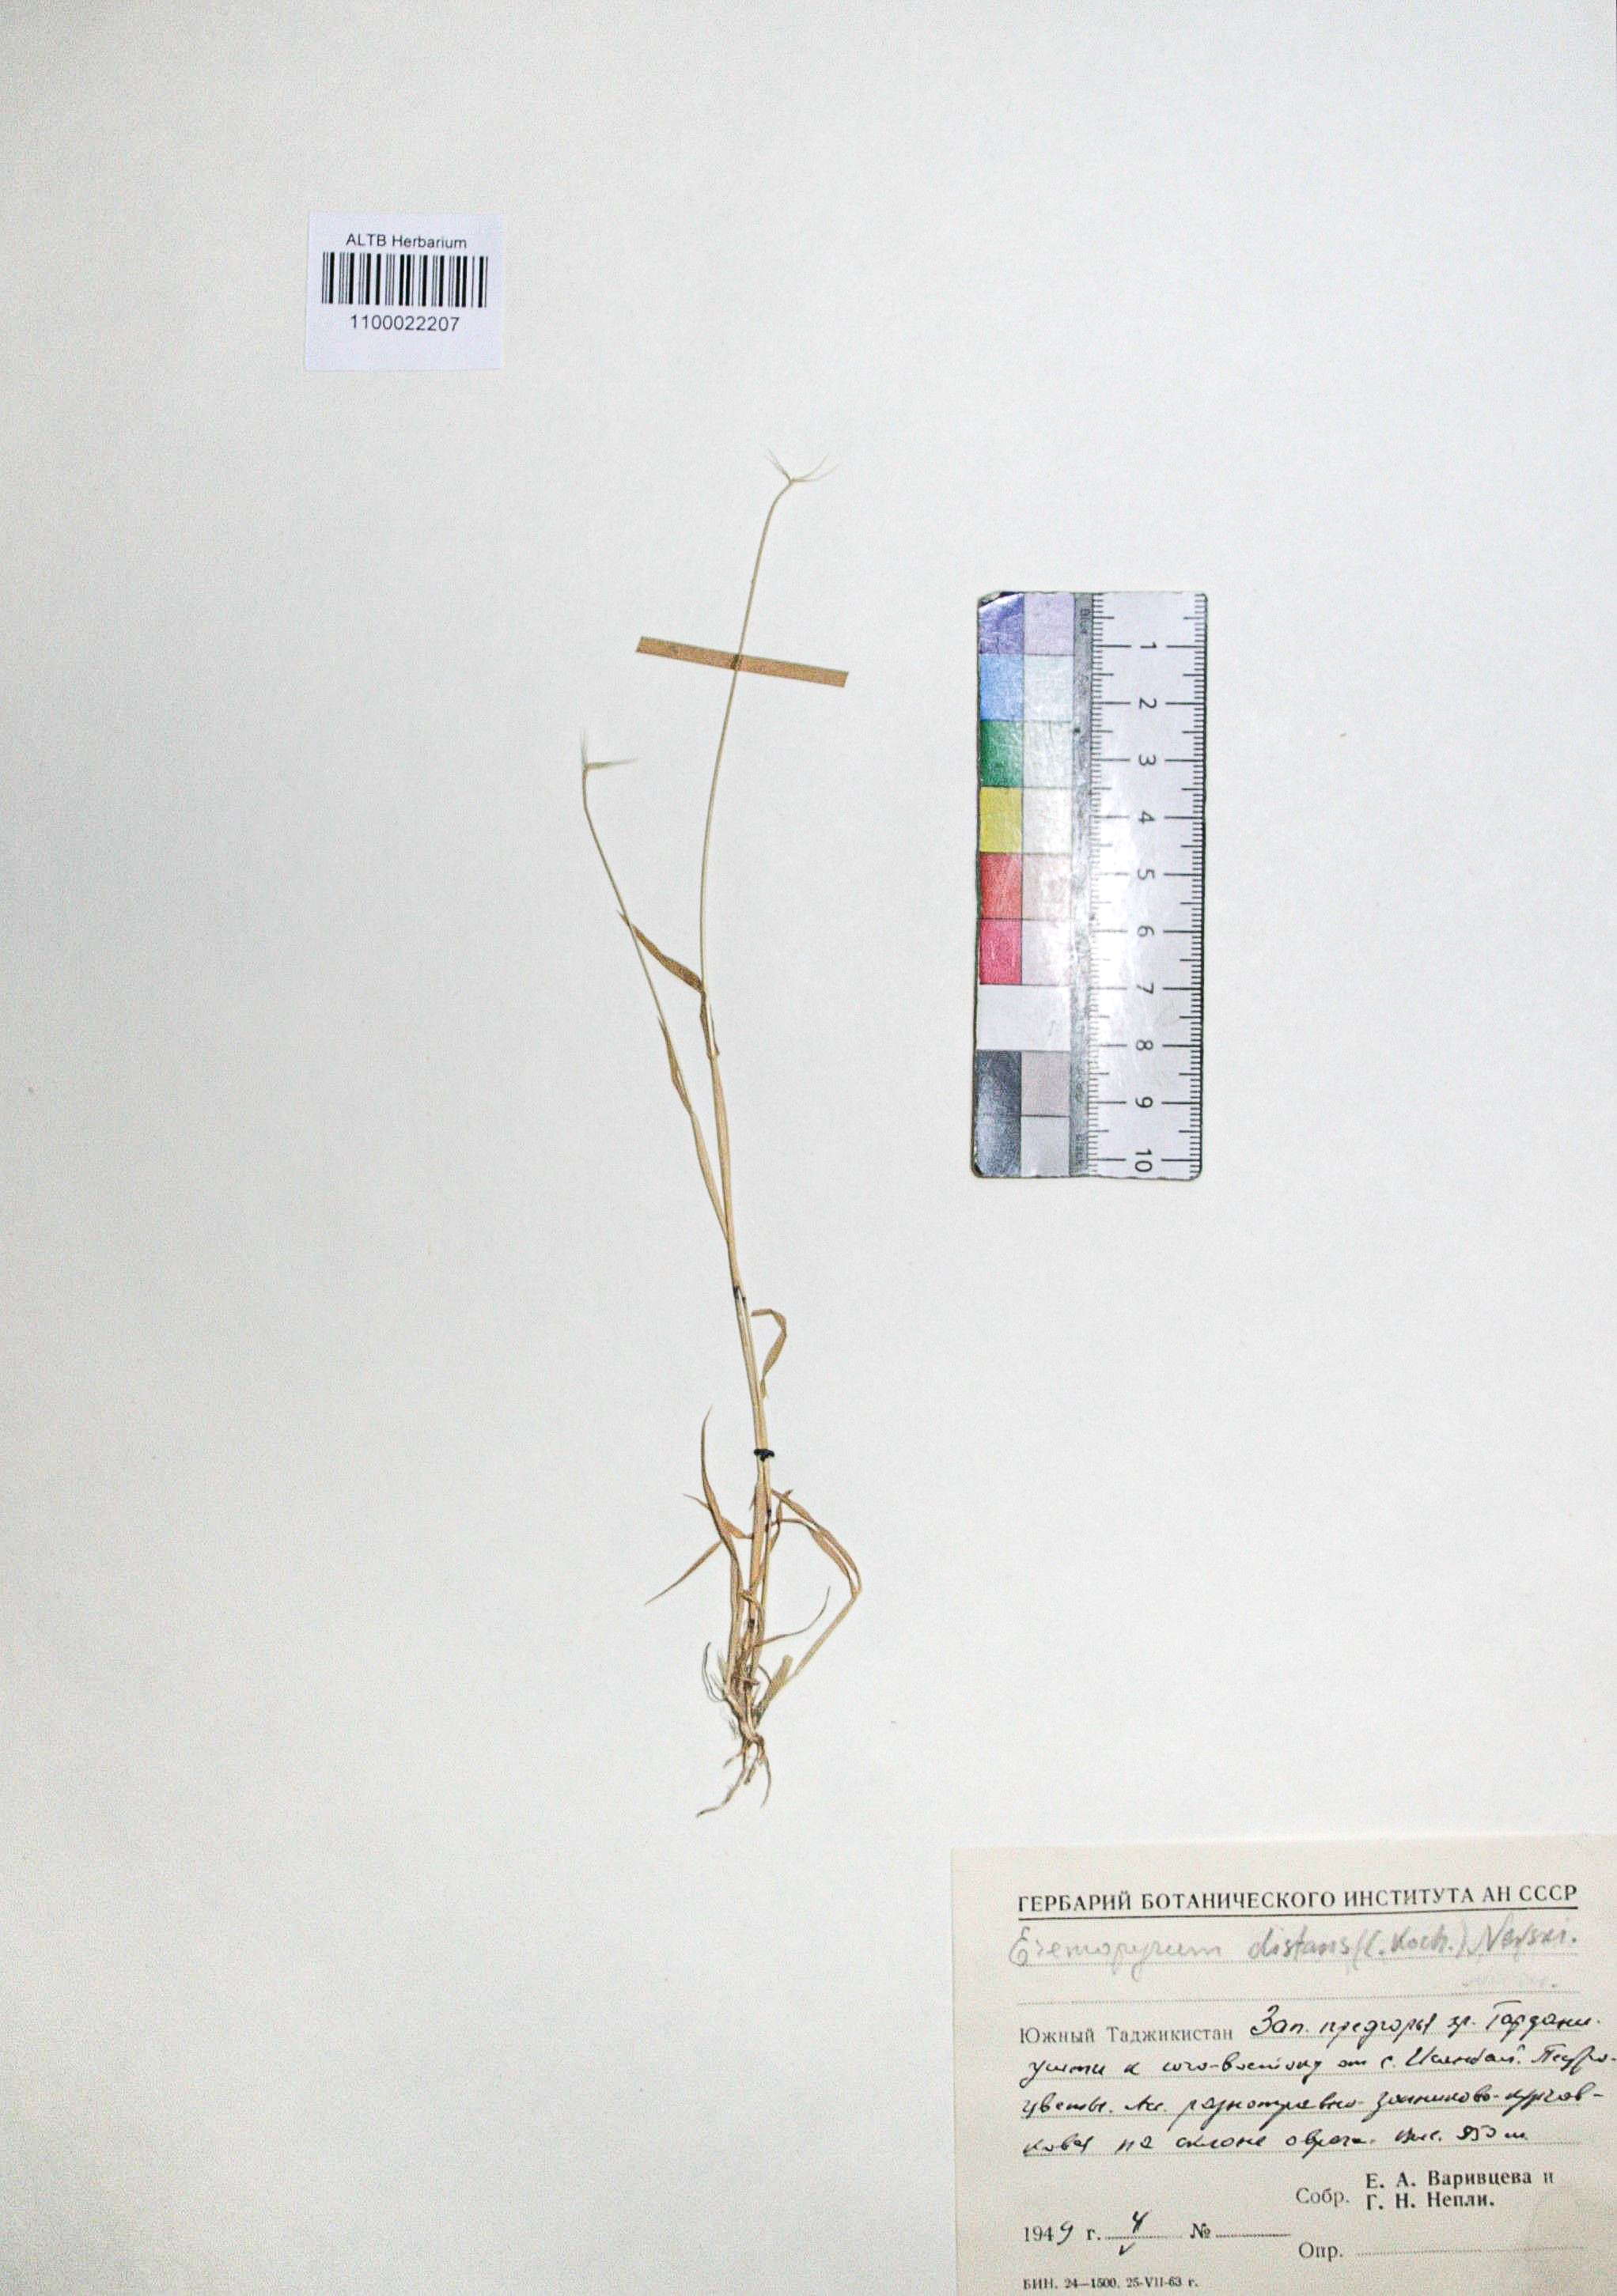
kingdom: Plantae
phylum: Tracheophyta
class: Liliopsida
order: Poales
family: Poaceae
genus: Eremopyrum
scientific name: Eremopyrum distans
